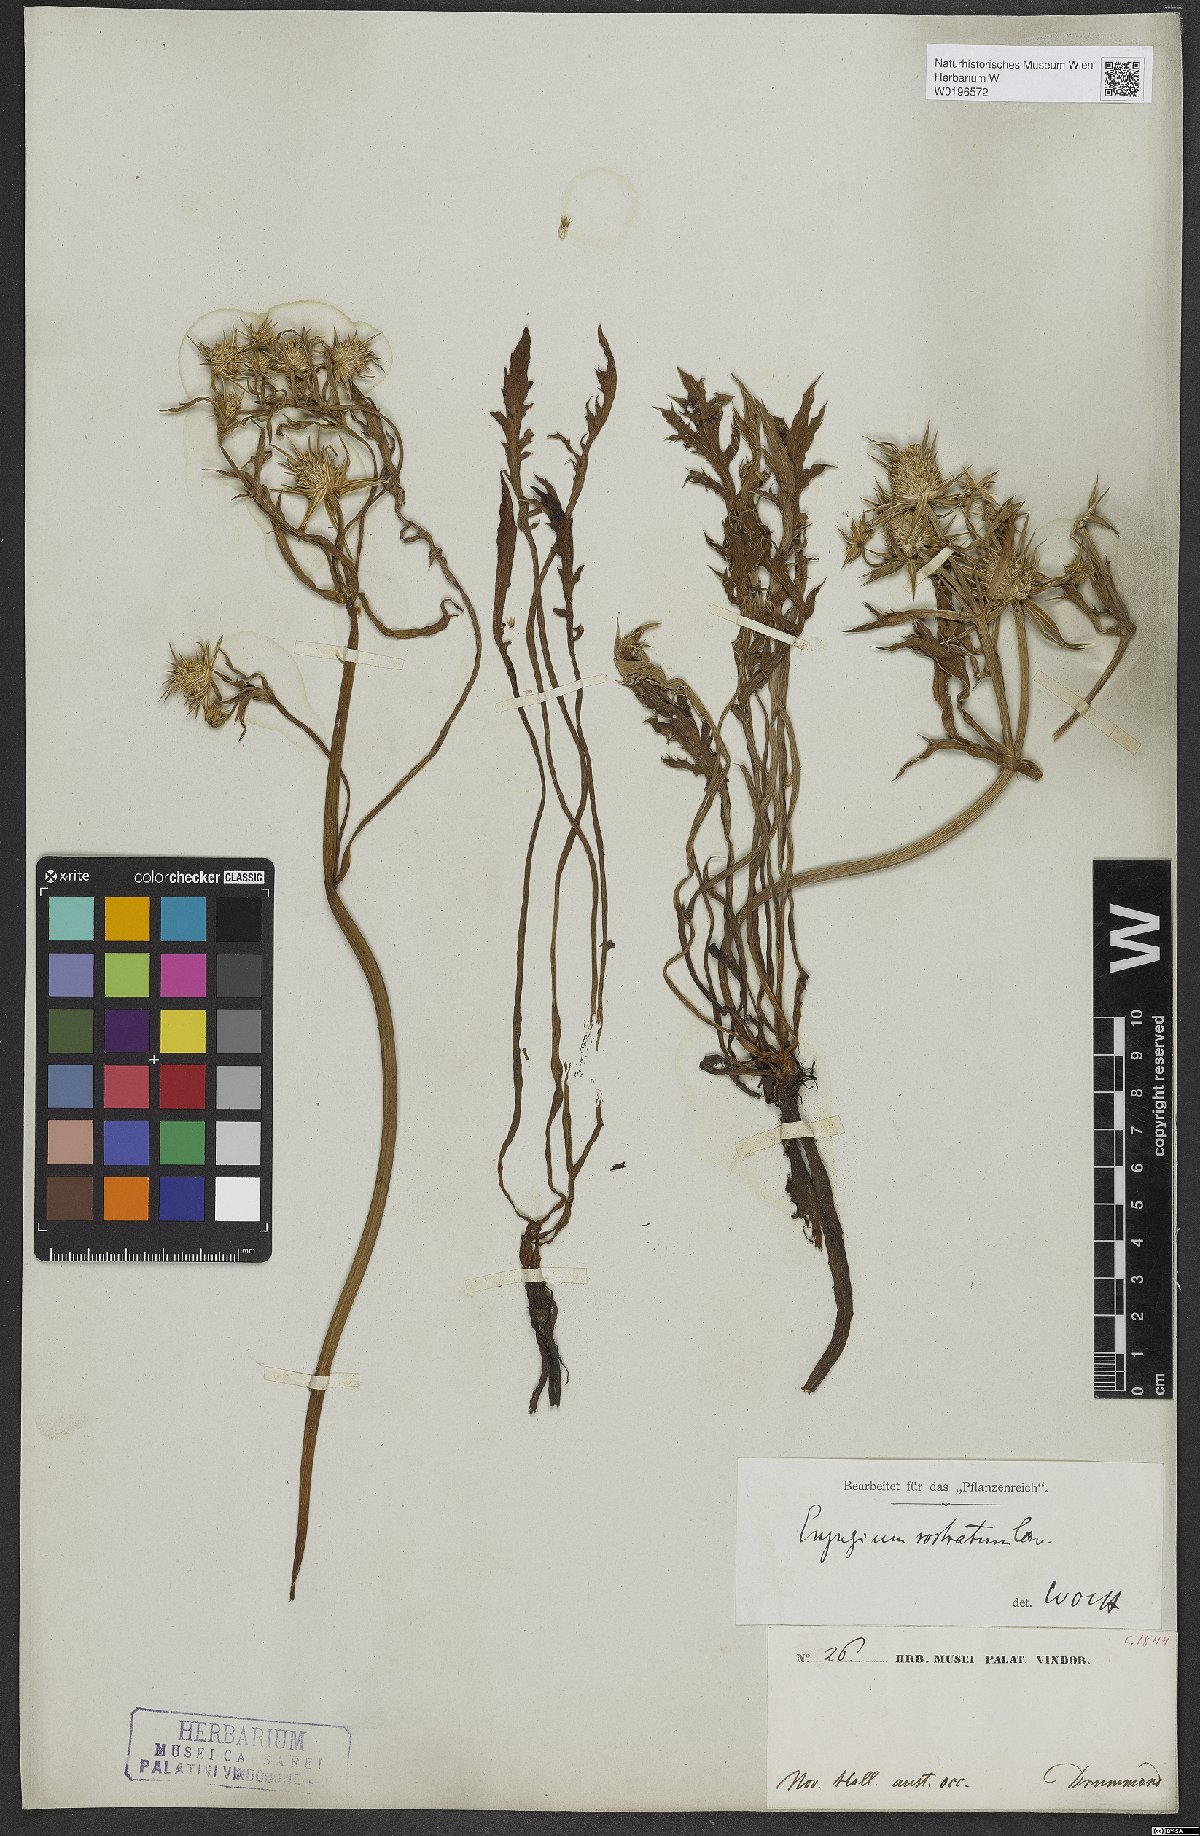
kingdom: Plantae
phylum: Tracheophyta
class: Magnoliopsida
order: Apiales
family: Apiaceae
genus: Eryngium
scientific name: Eryngium rostratum
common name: Blue eryngo
